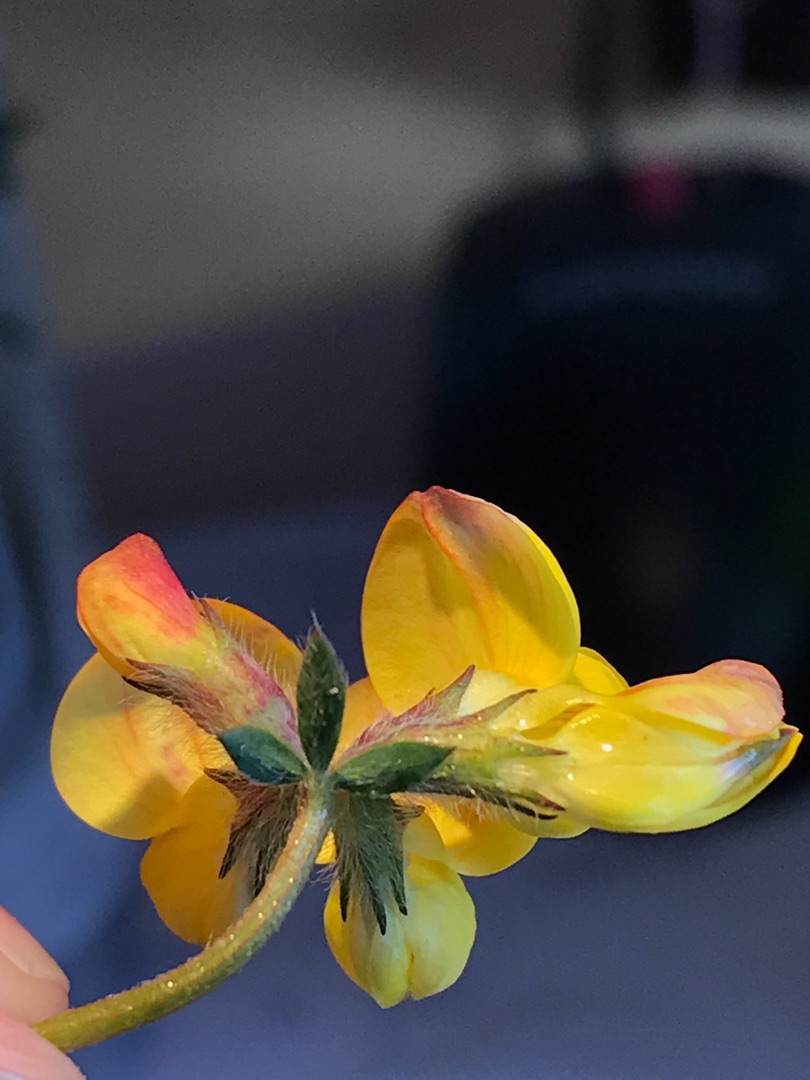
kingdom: Plantae
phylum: Tracheophyta
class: Magnoliopsida
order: Fabales
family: Fabaceae
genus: Lotus
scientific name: Lotus corniculatus
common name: Almindelig kællingetand
